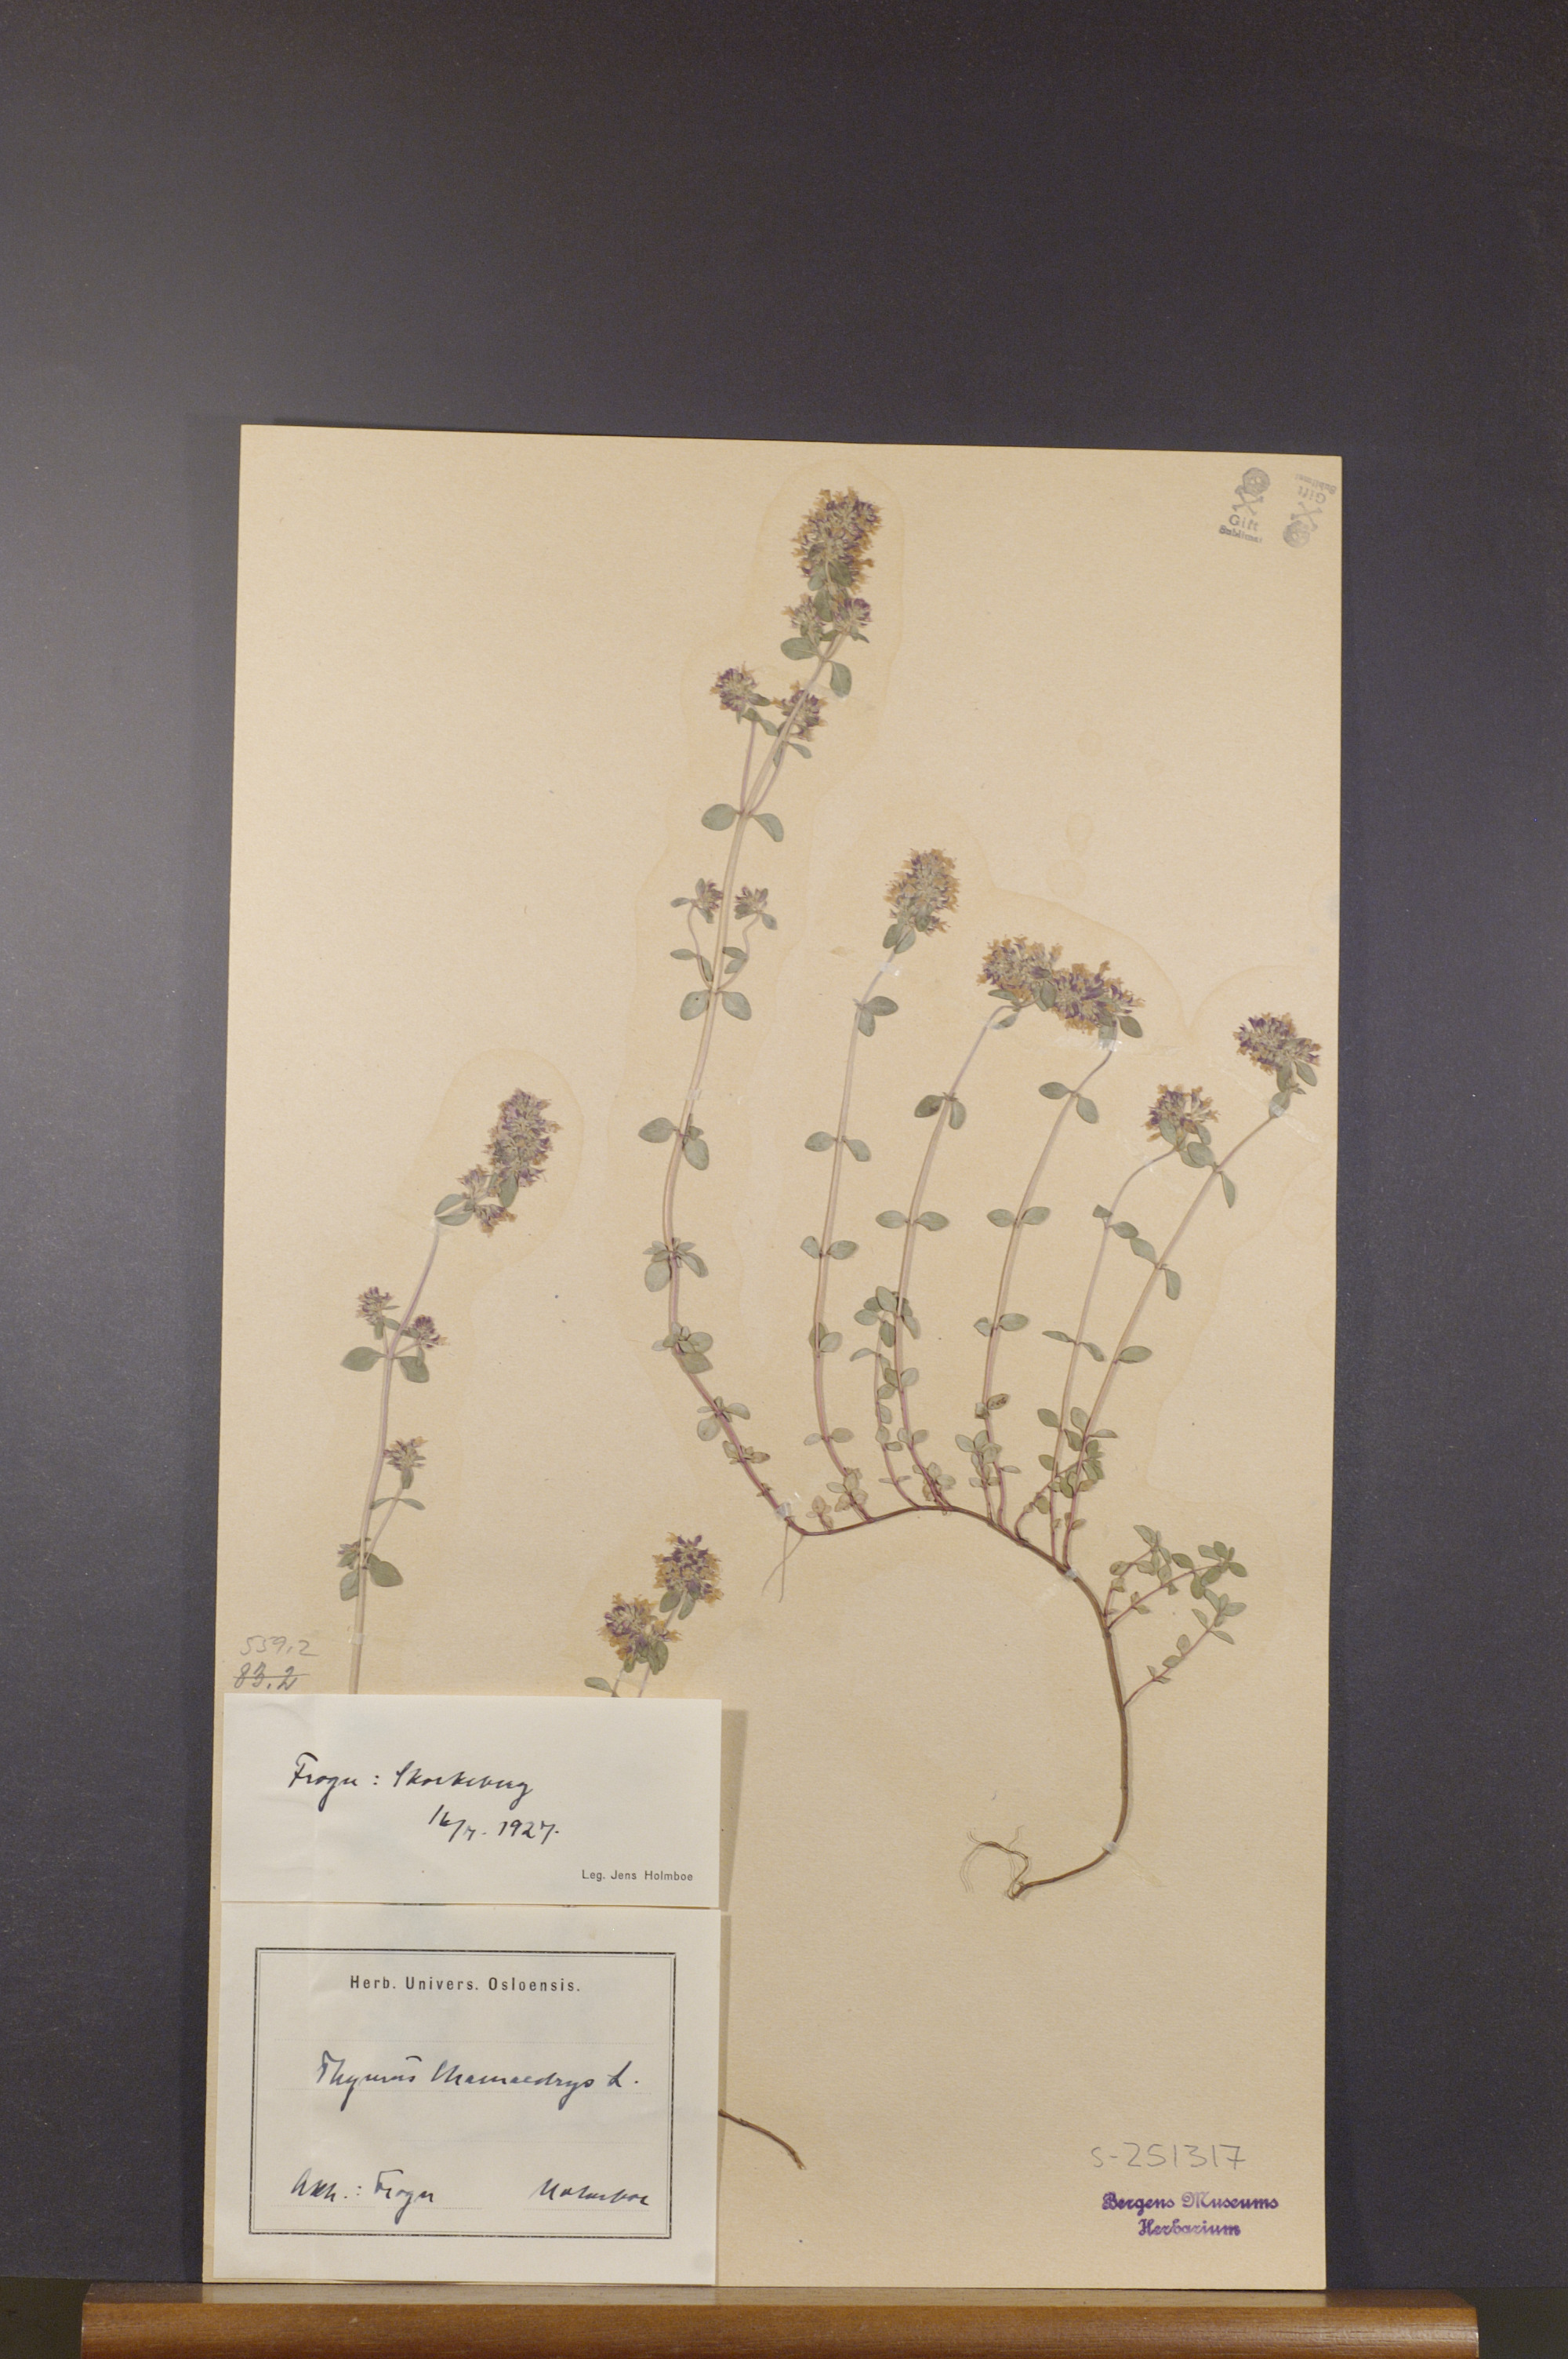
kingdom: Plantae
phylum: Tracheophyta
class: Magnoliopsida
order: Lamiales
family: Lamiaceae
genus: Thymus
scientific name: Thymus pulegioides
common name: Large thyme
